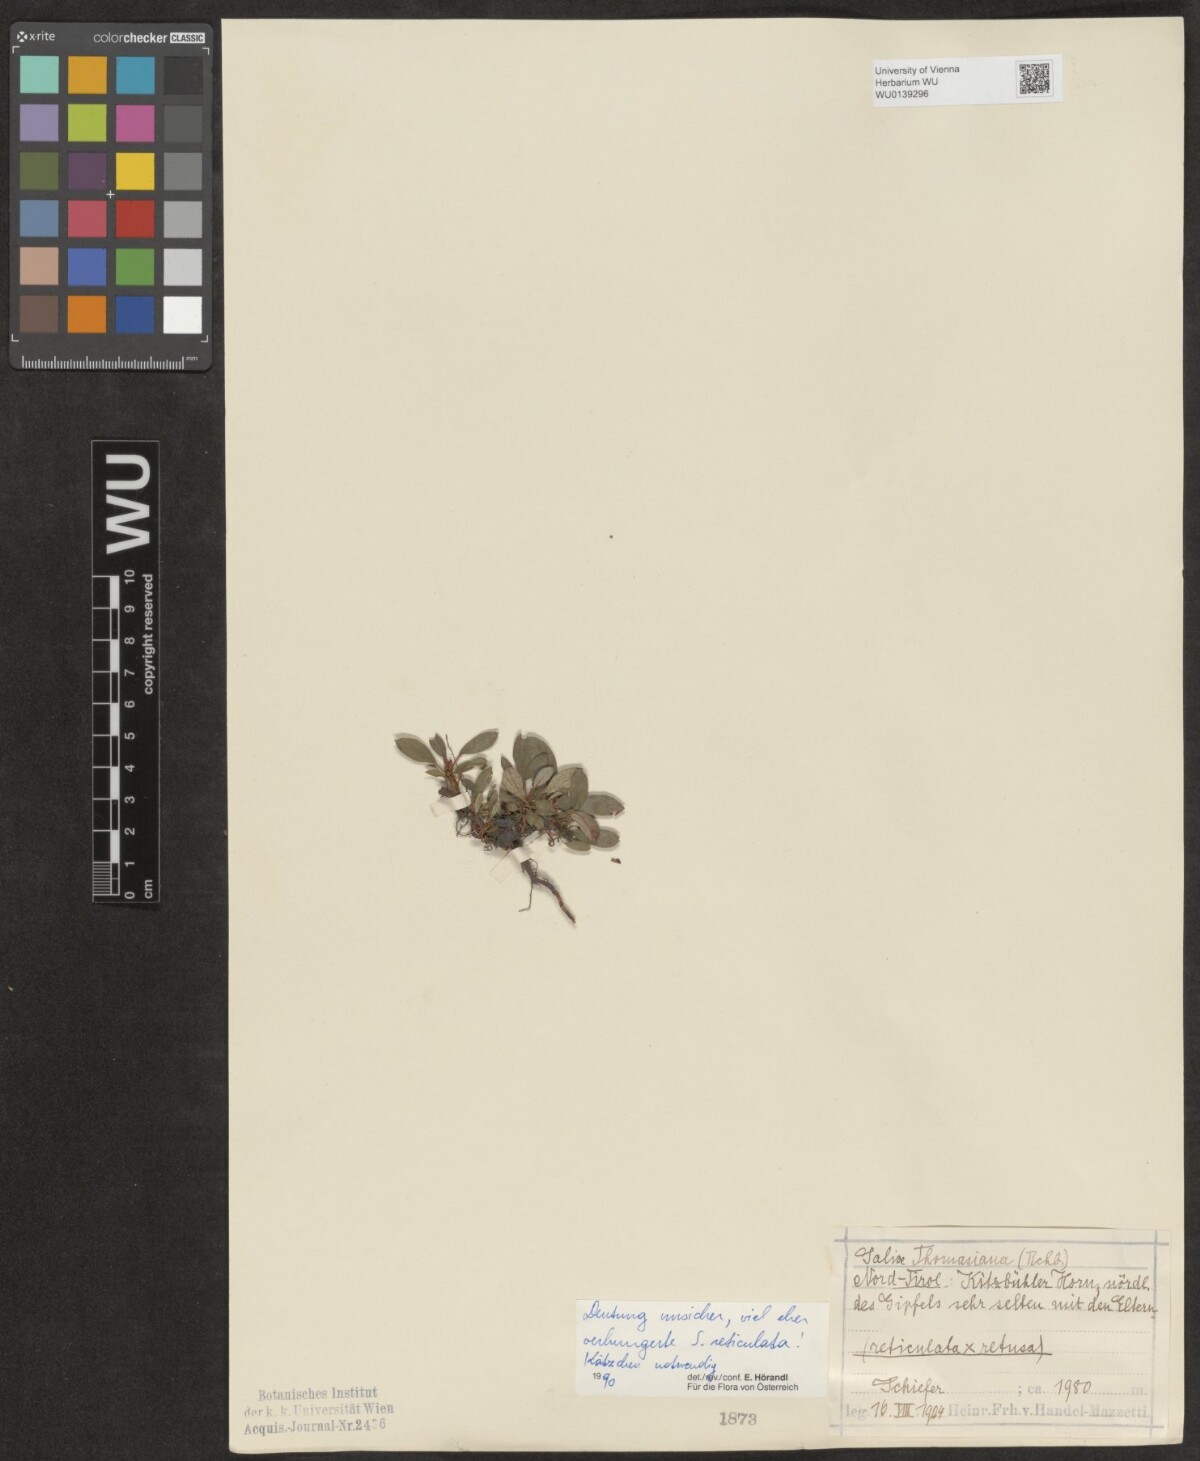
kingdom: Plantae
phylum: Tracheophyta
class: Magnoliopsida
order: Malpighiales
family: Salicaceae
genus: Salix
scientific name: Salix reticulata
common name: Net-leaved willow
